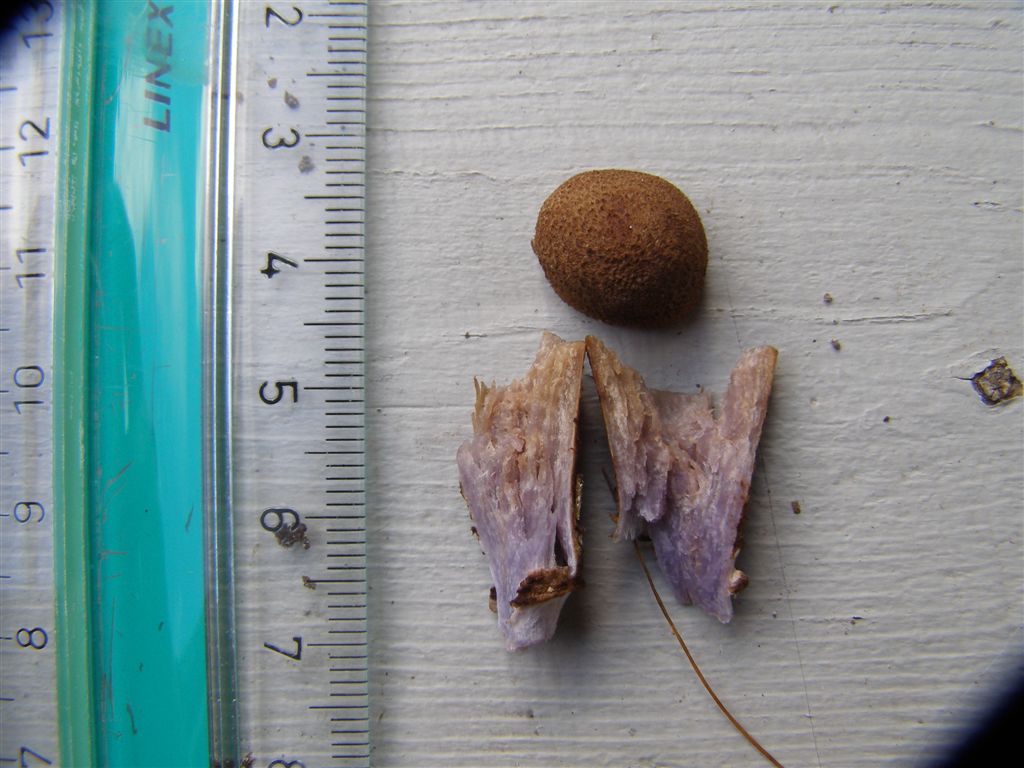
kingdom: Fungi
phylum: Basidiomycota
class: Agaricomycetes
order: Agaricales
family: Cortinariaceae
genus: Cortinarius
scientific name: Cortinarius pholideus
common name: brunskællet slørhat
